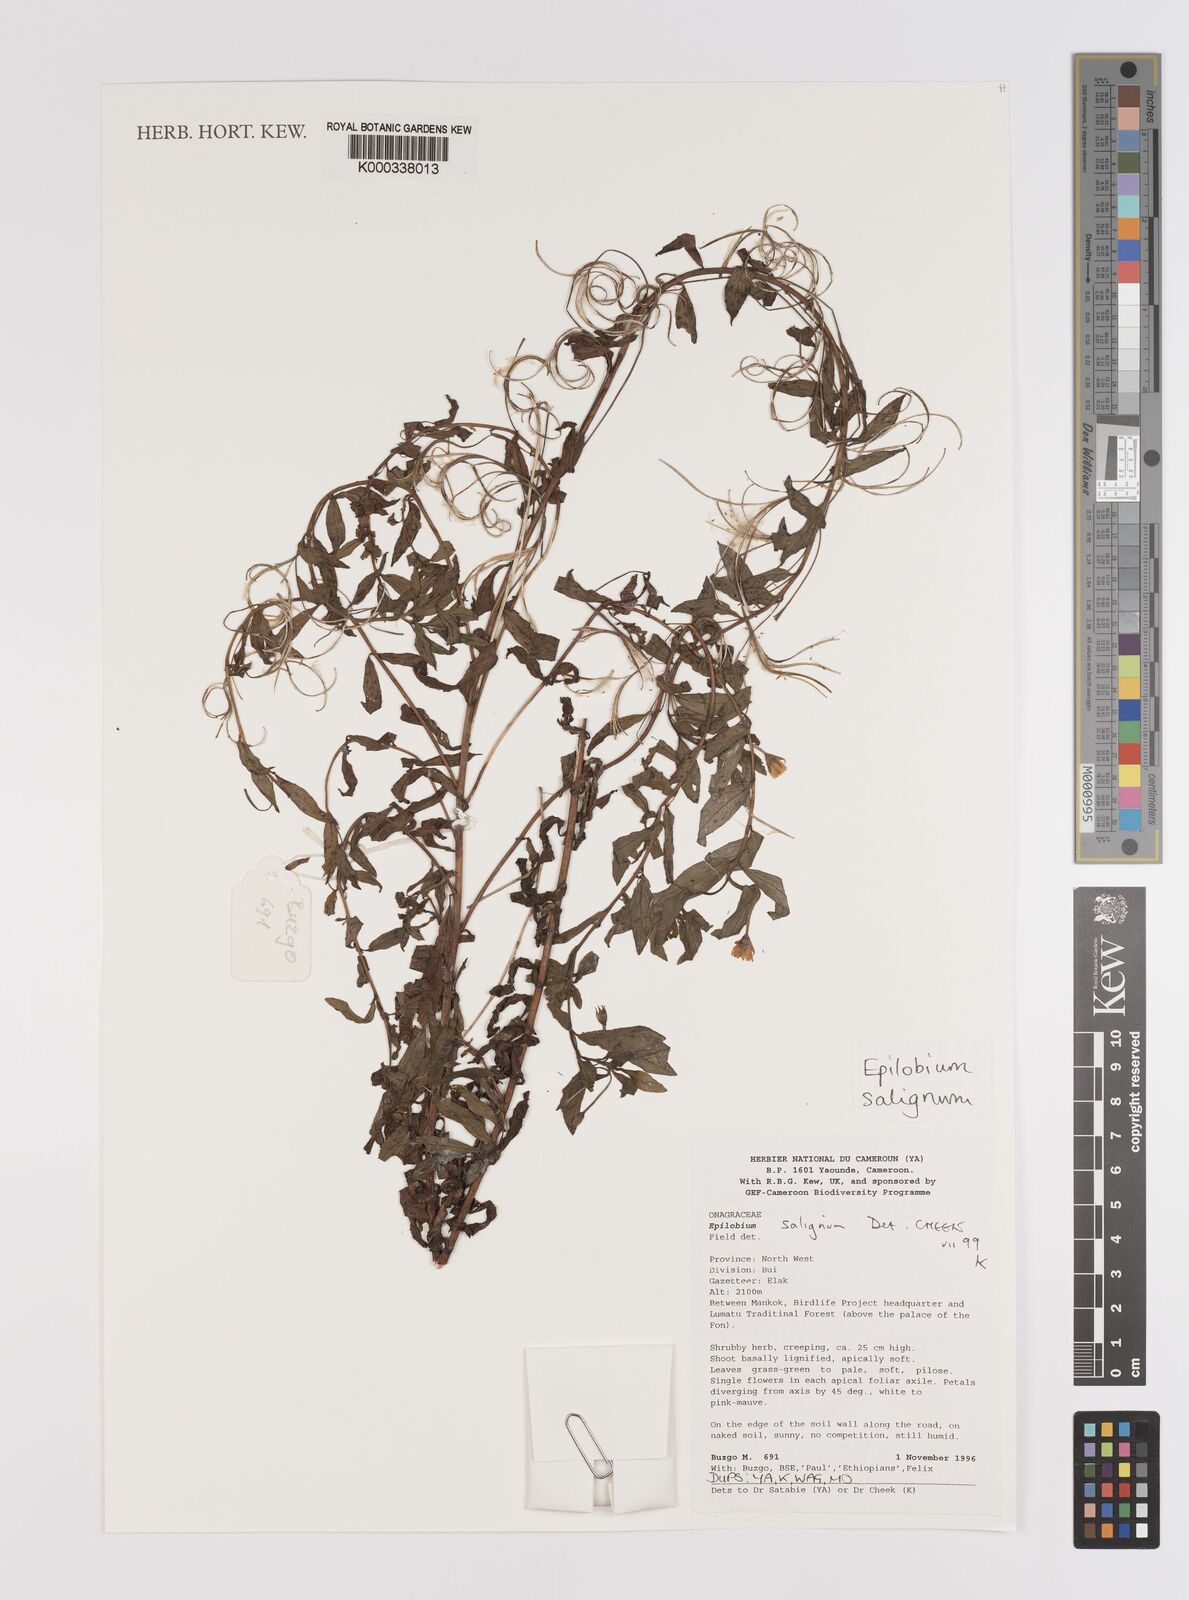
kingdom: Plantae
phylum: Tracheophyta
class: Magnoliopsida
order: Myrtales
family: Onagraceae
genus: Epilobium
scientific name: Epilobium salignum
